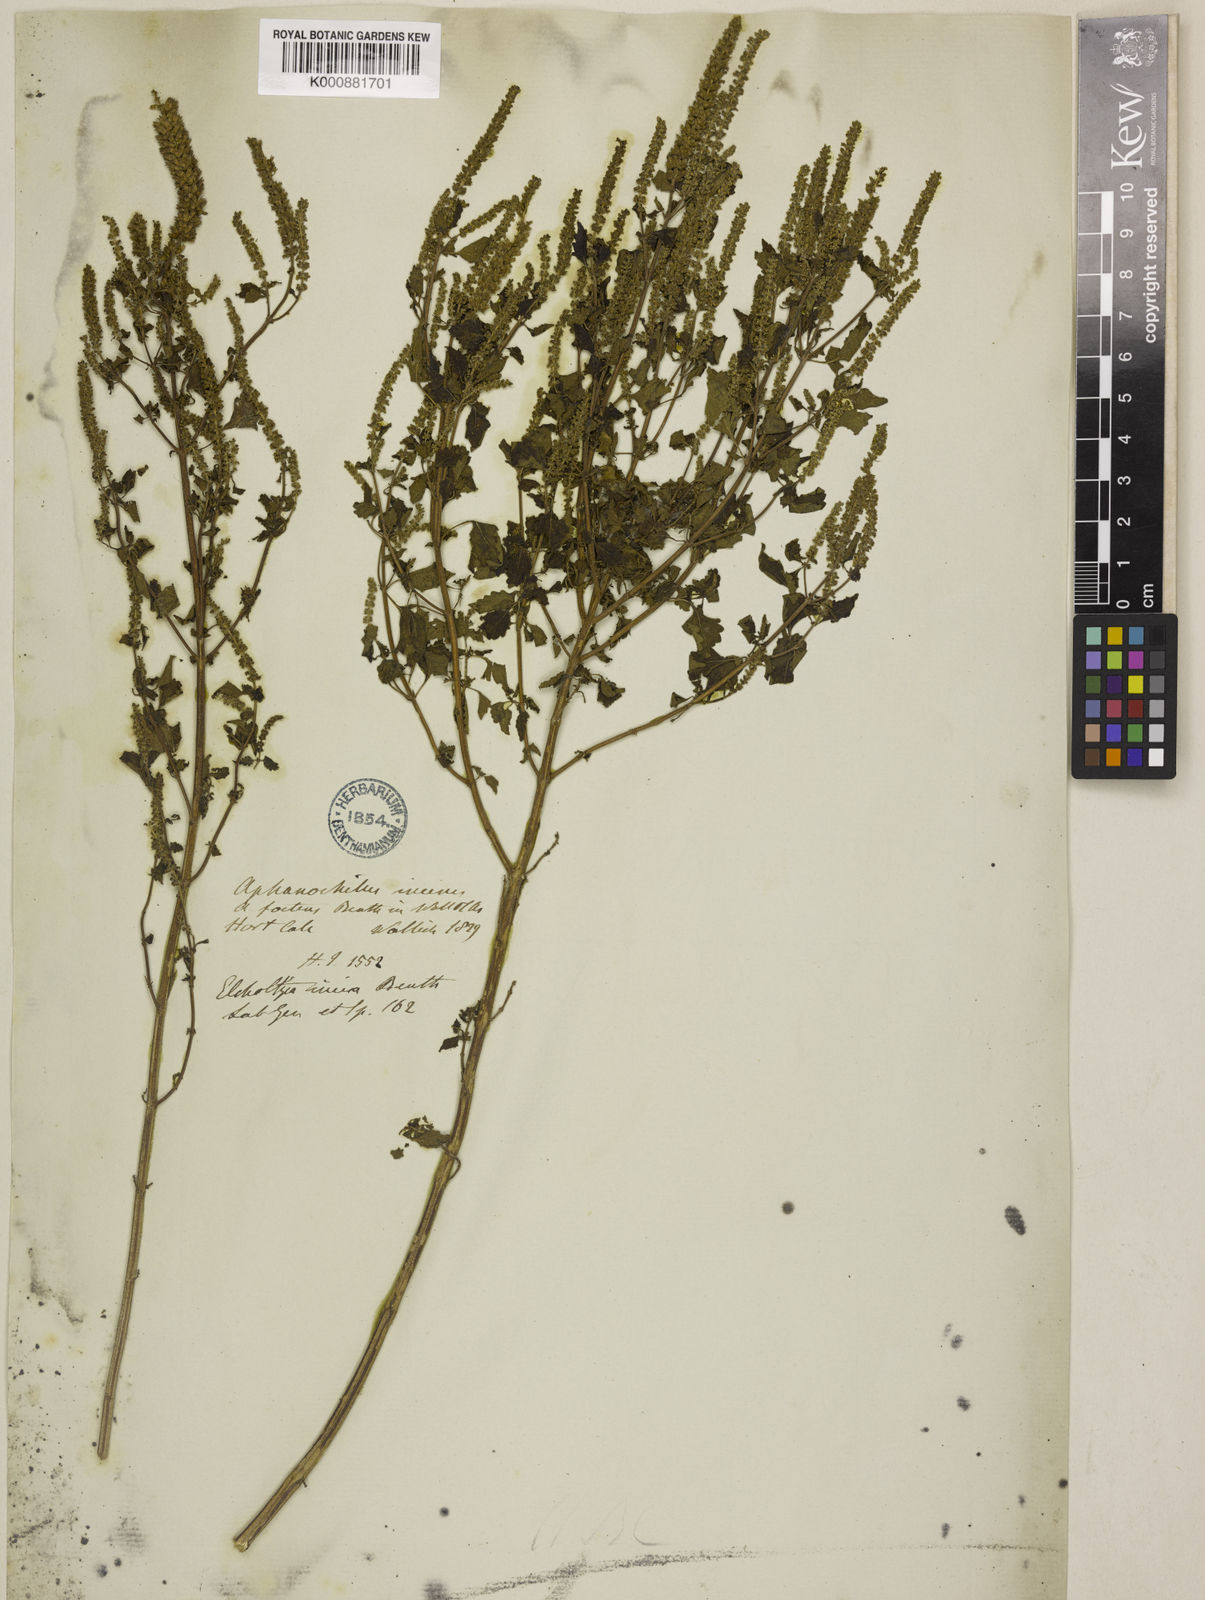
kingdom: Plantae
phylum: Tracheophyta
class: Magnoliopsida
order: Lamiales
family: Lamiaceae
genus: Elsholtzia
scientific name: Elsholtzia stachyodes
